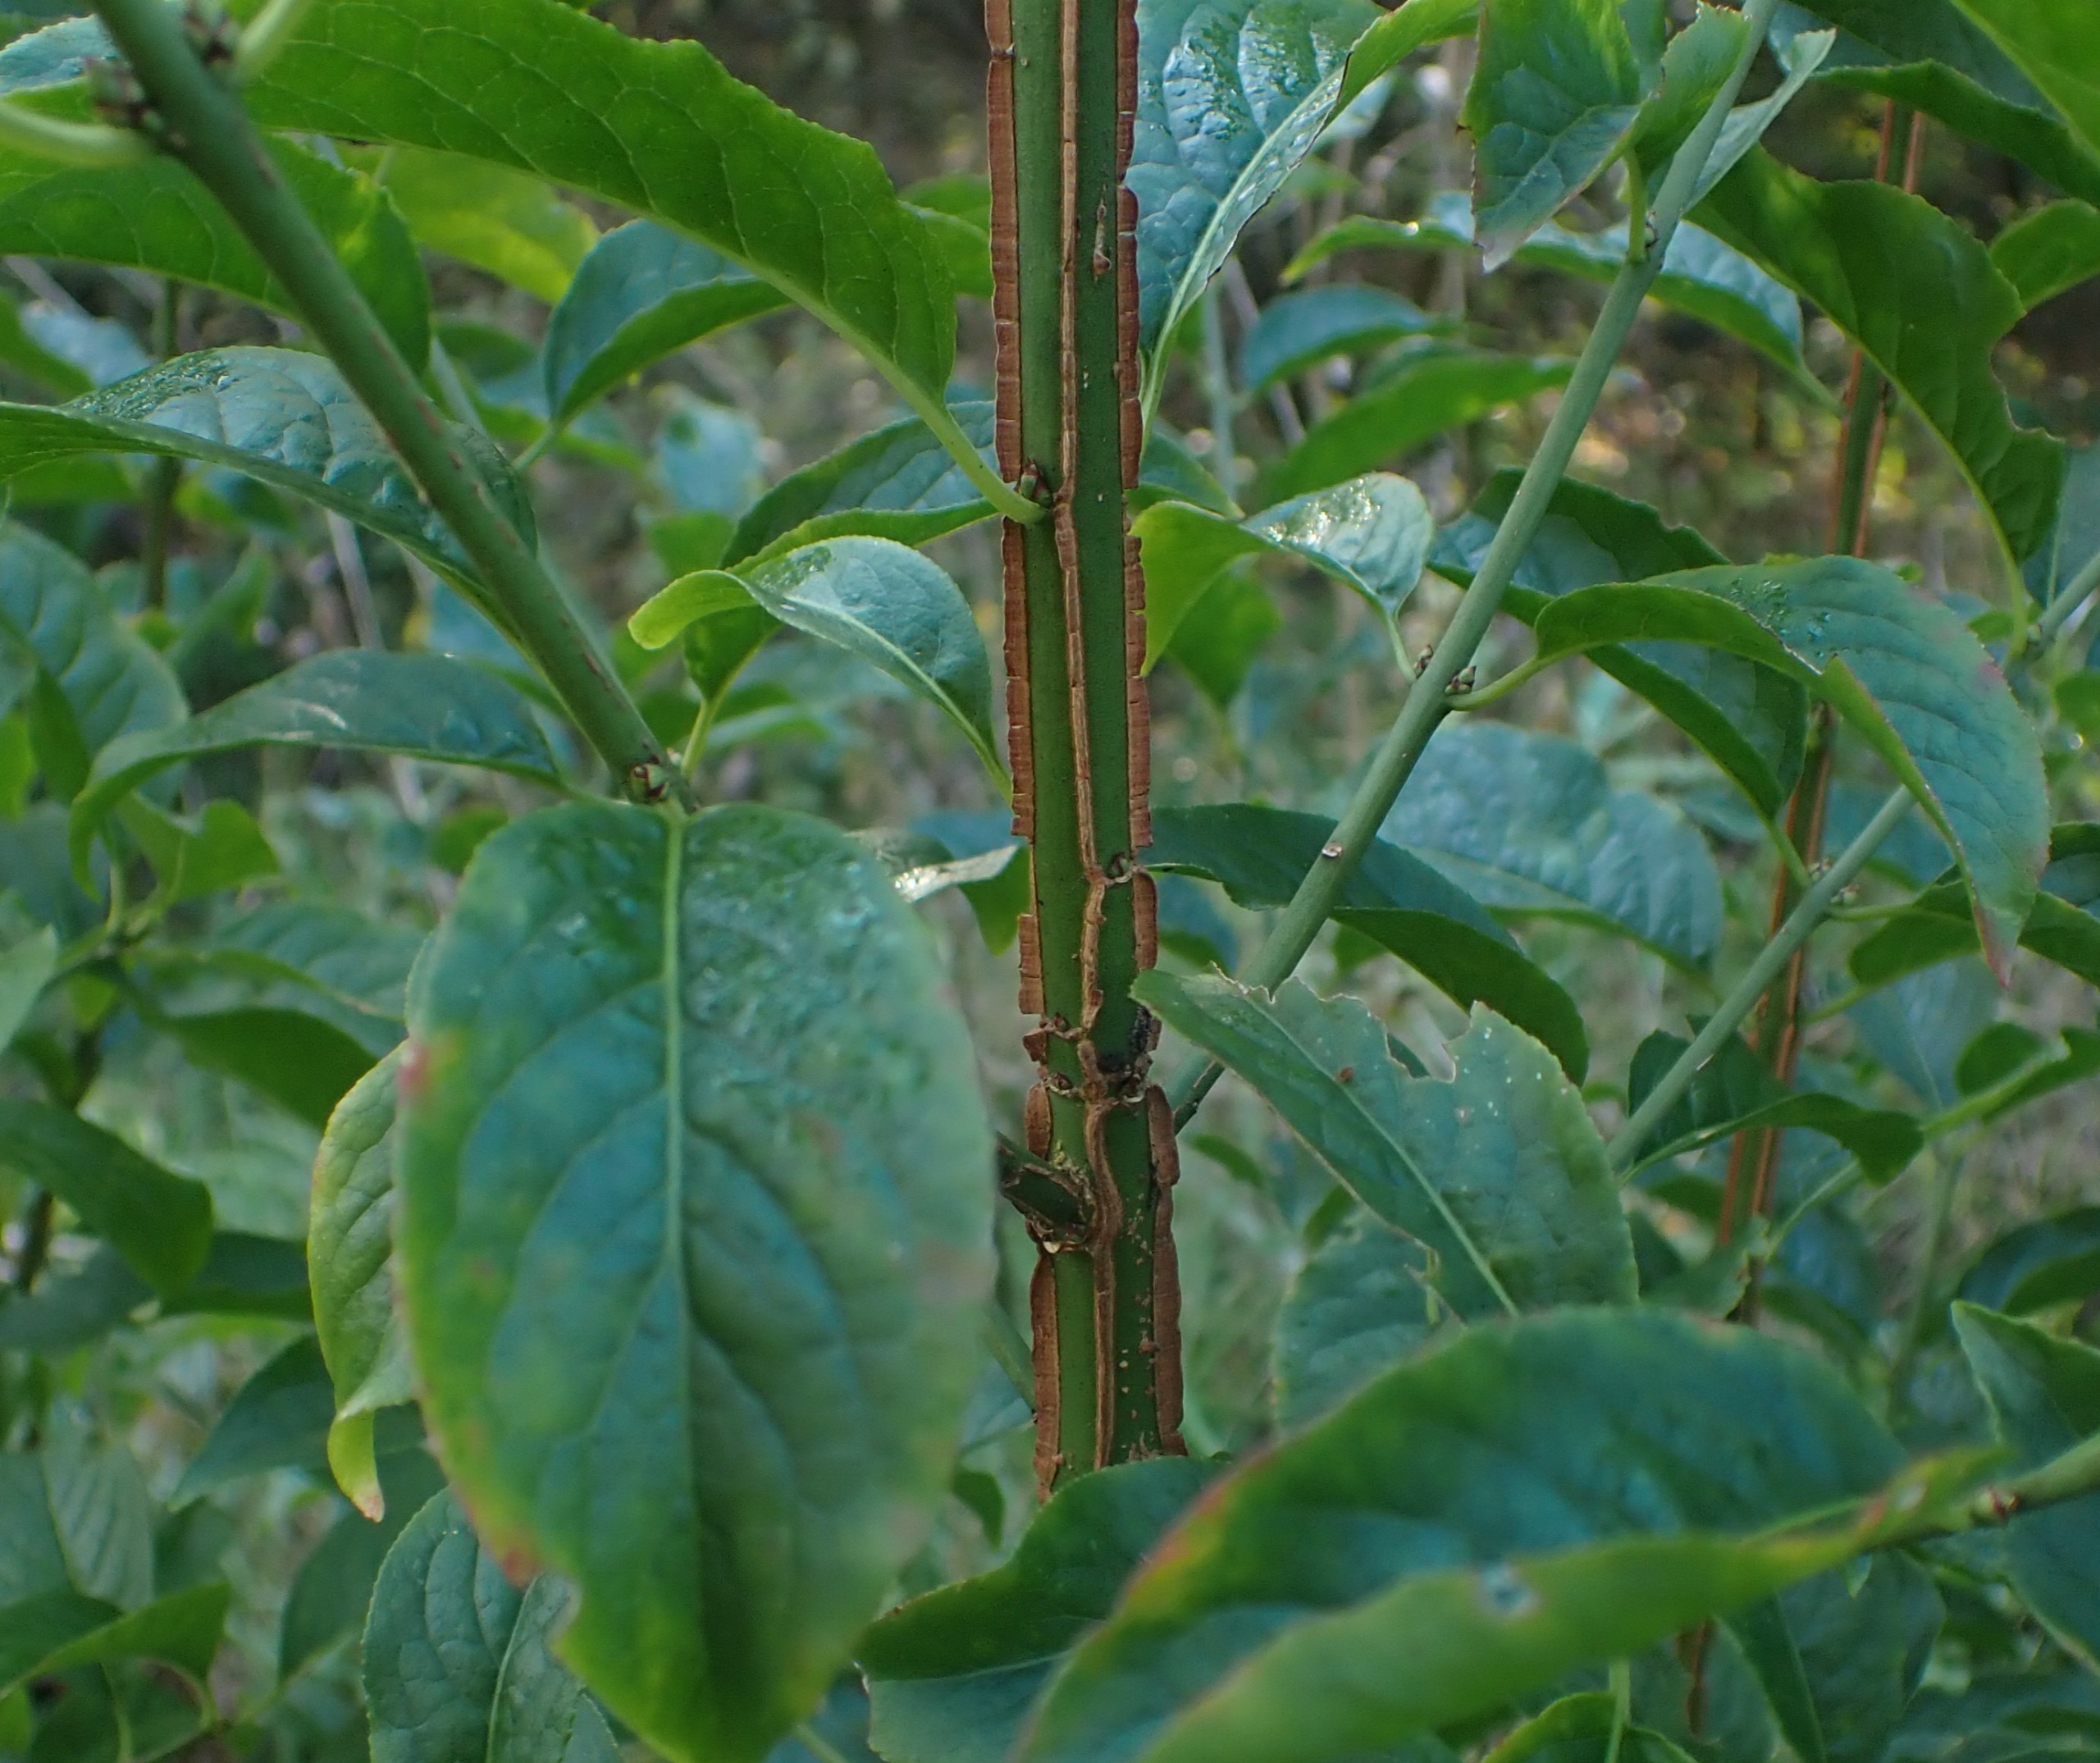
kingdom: Plantae
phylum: Tracheophyta
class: Magnoliopsida
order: Celastrales
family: Celastraceae
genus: Euonymus
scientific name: Euonymus europaeus
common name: Benved
